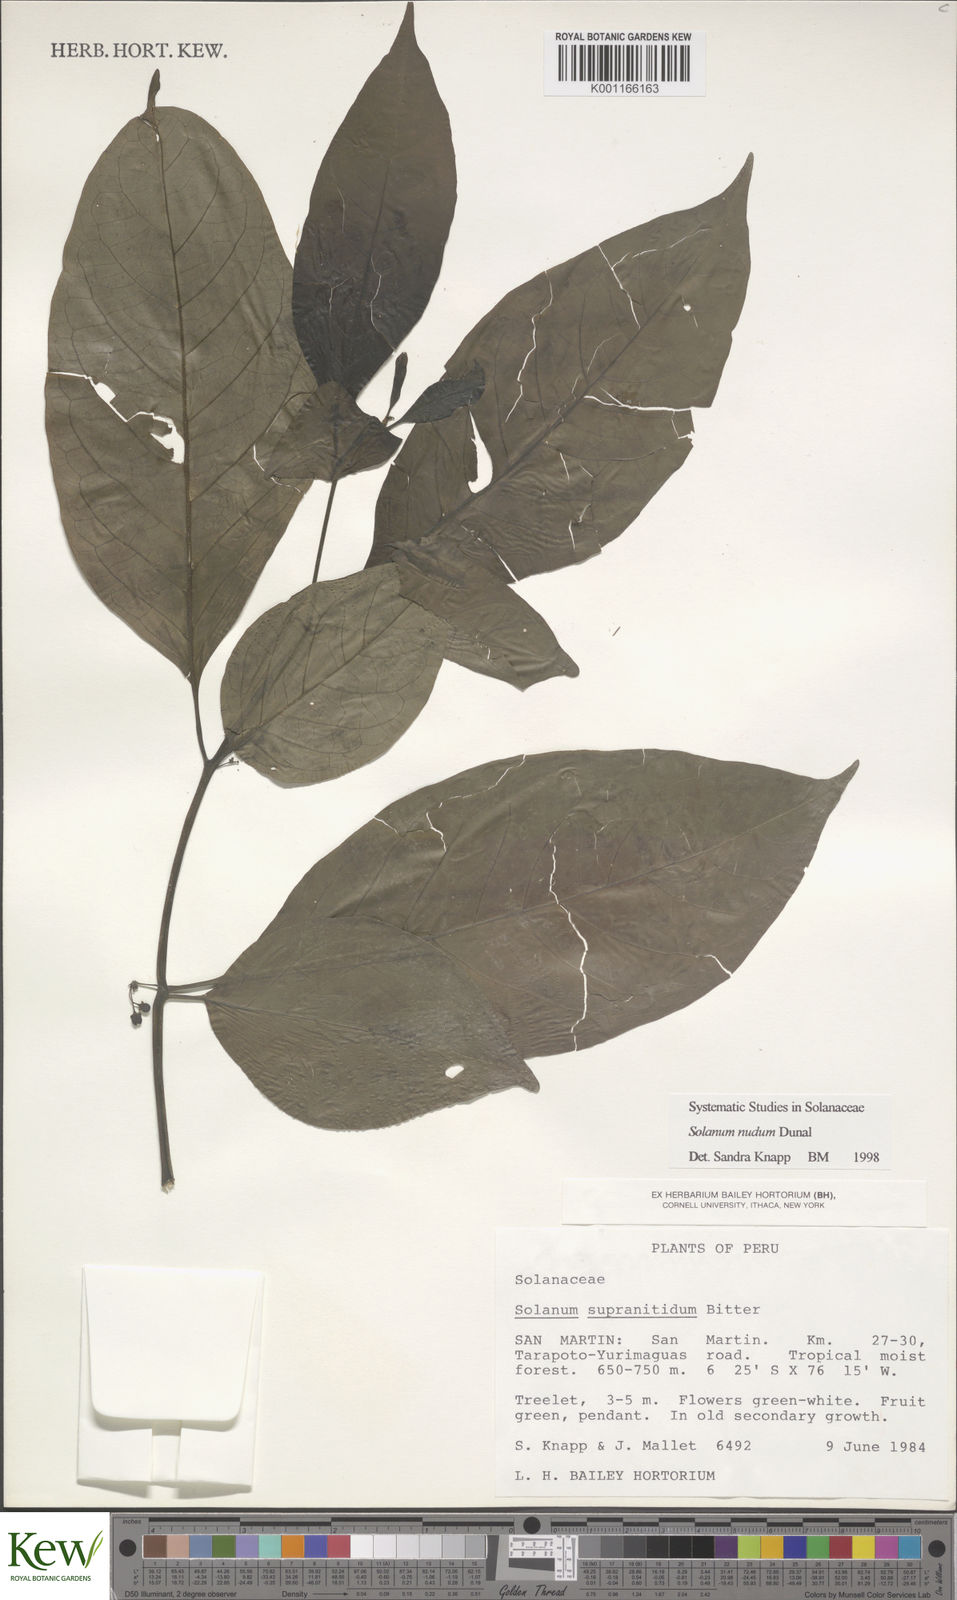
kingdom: Plantae
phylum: Tracheophyta
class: Magnoliopsida
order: Solanales
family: Solanaceae
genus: Solanum
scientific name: Solanum nudum
